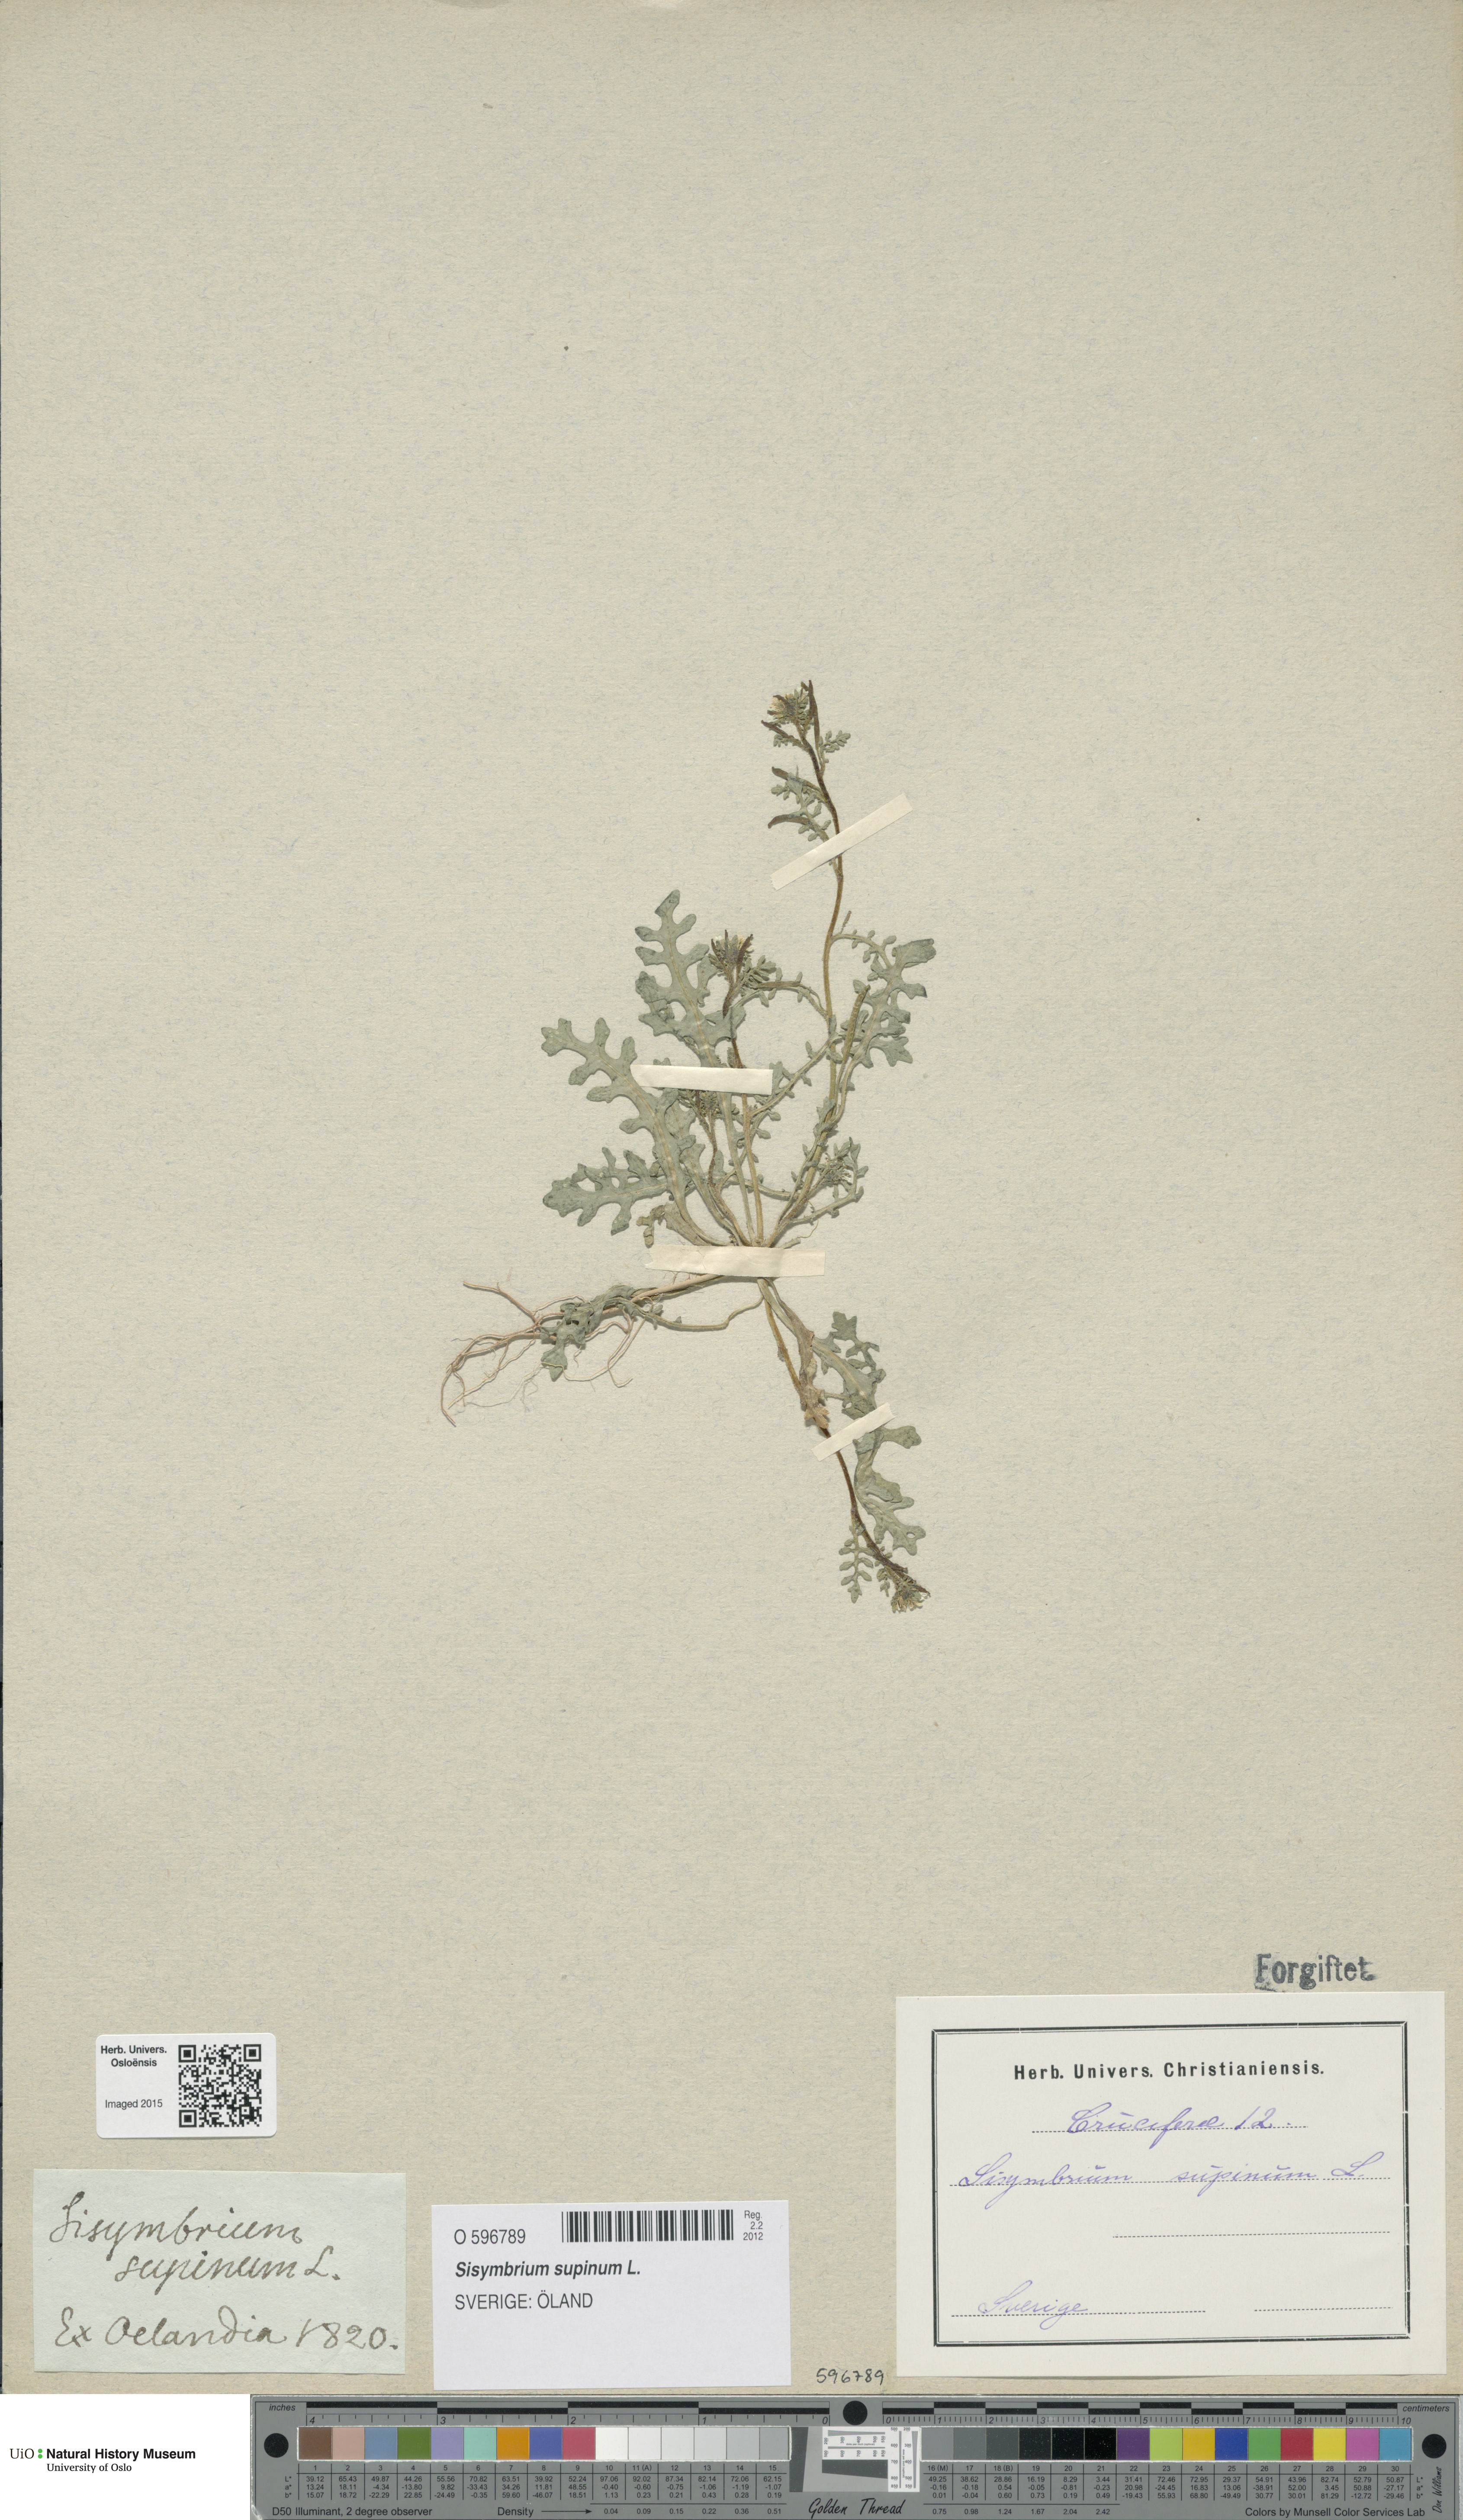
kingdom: Plantae
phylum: Tracheophyta
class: Magnoliopsida
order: Brassicales
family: Brassicaceae
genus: Erucastrum
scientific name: Erucastrum supinum
